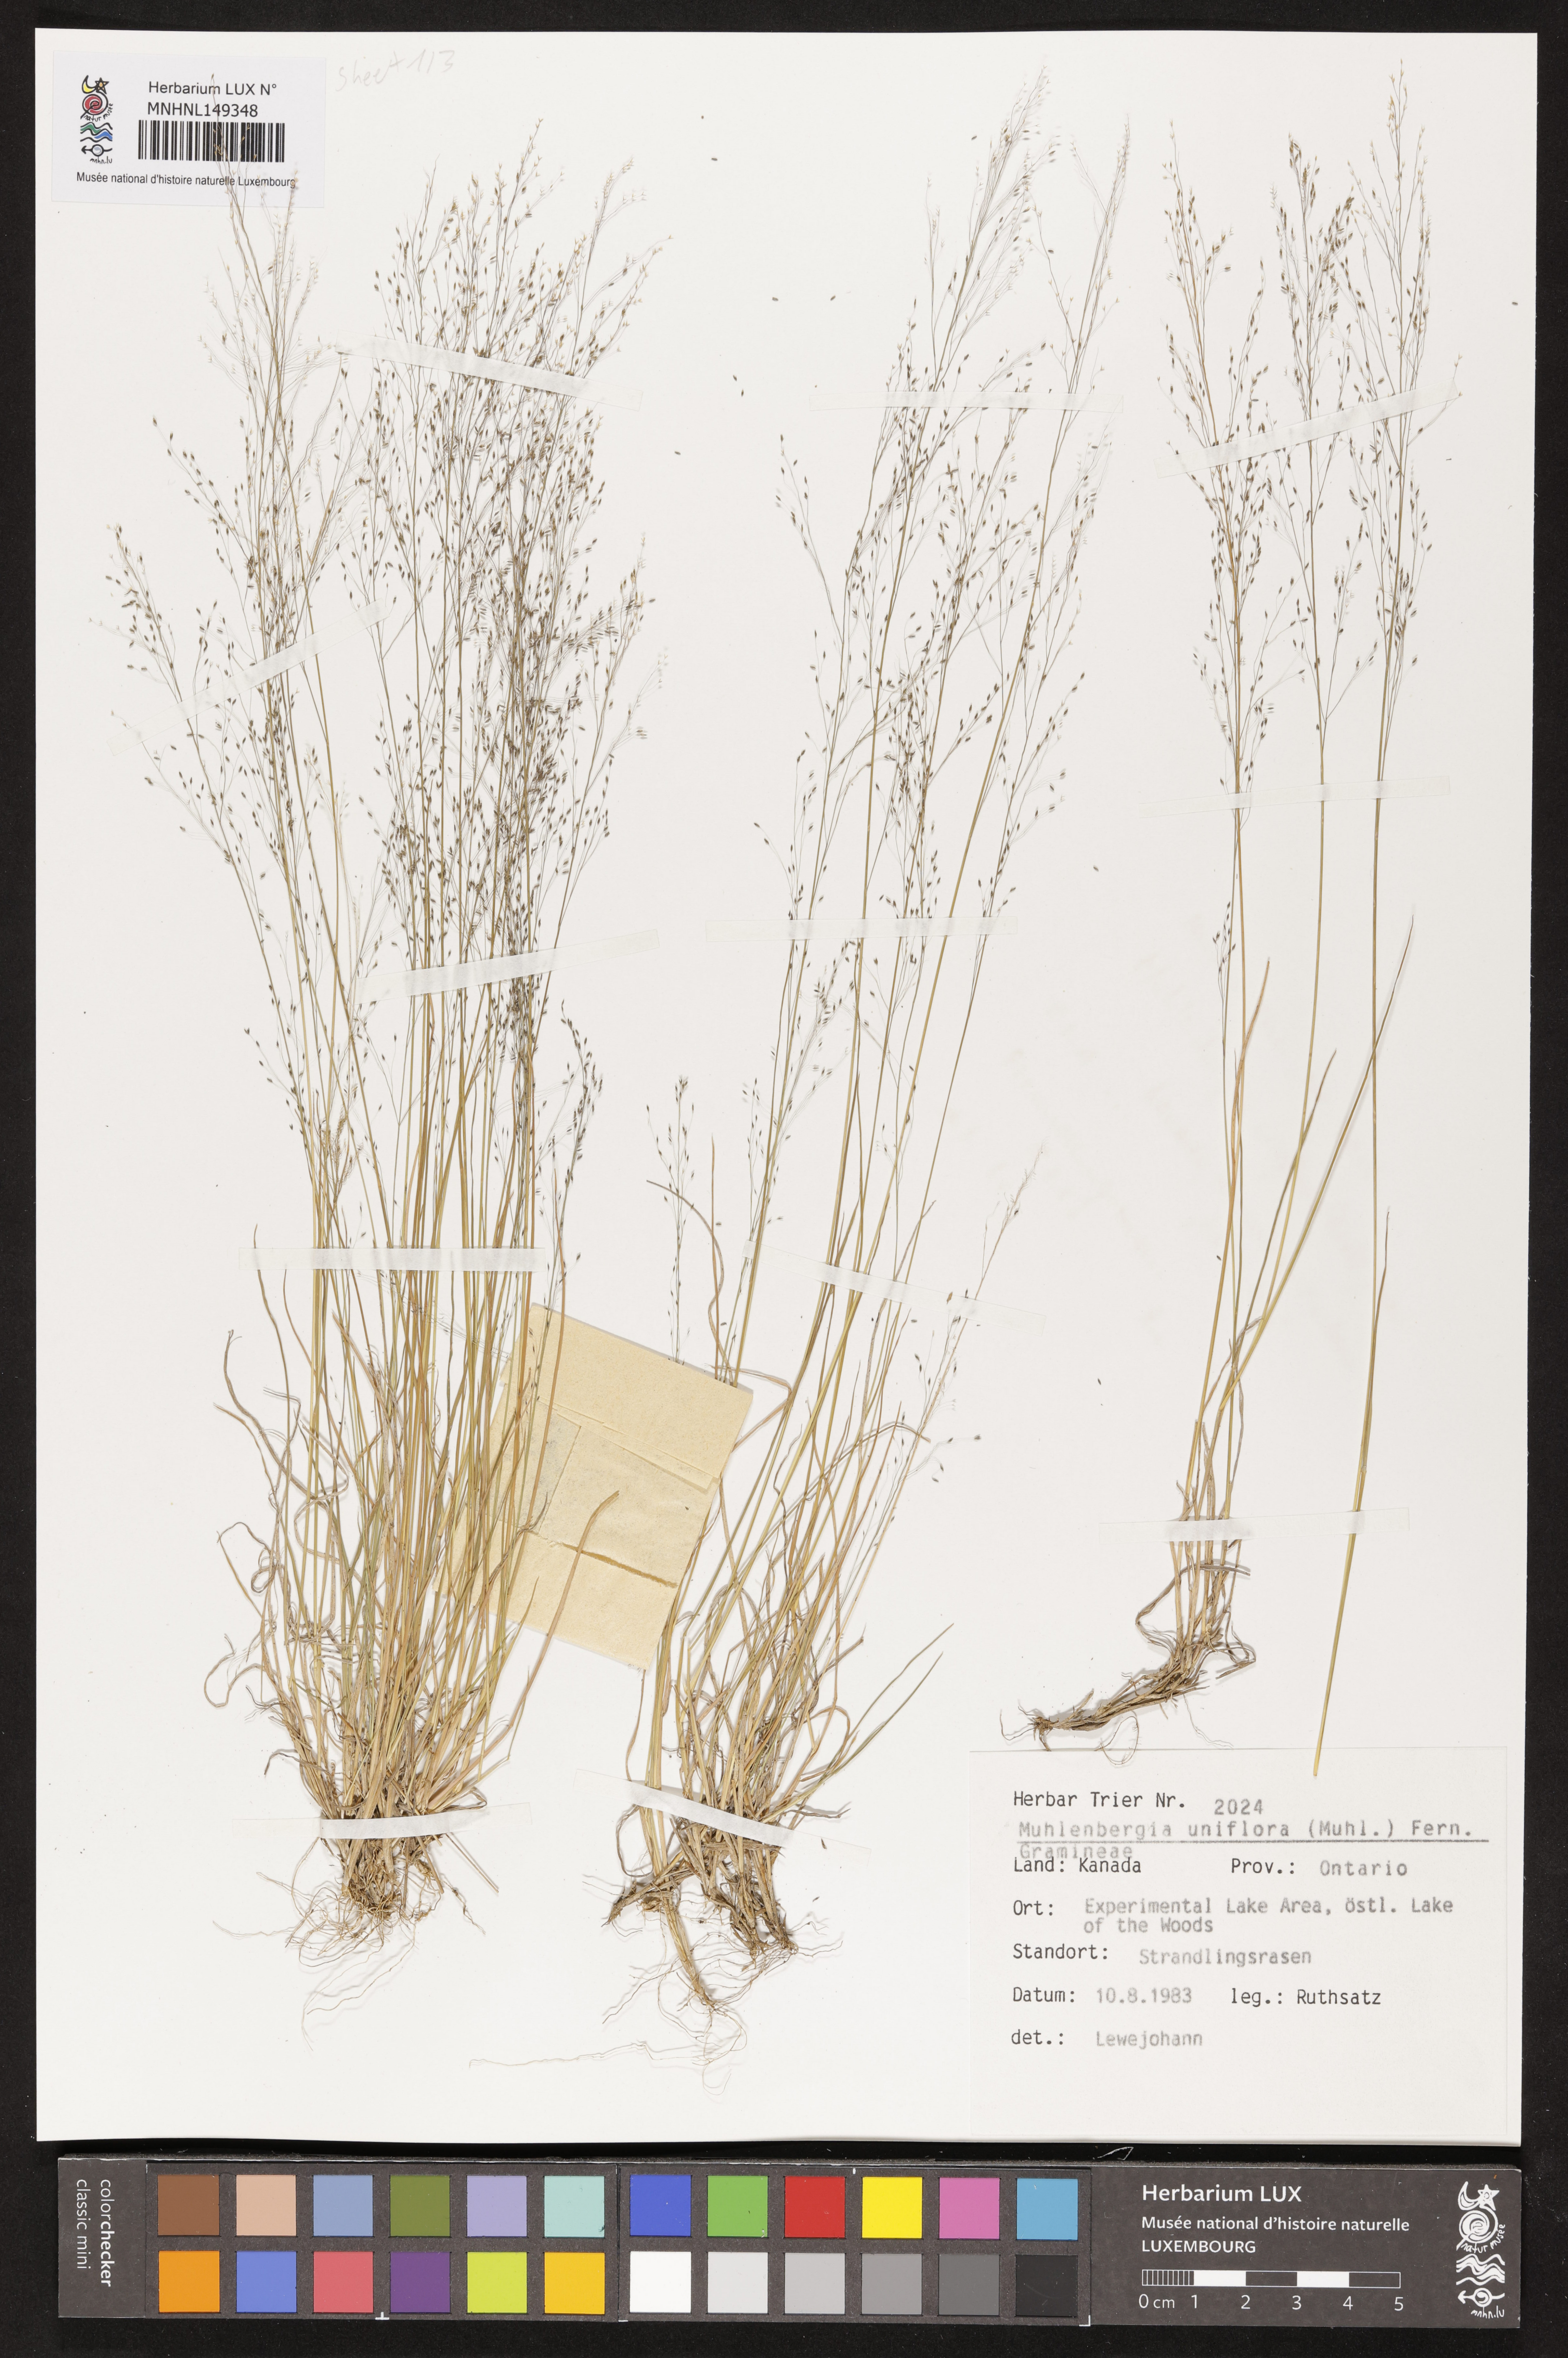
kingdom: Plantae
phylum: Tracheophyta
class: Liliopsida
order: Poales
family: Poaceae
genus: Muhlenbergia
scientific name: Muhlenbergia uniflora
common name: Bog muhly
